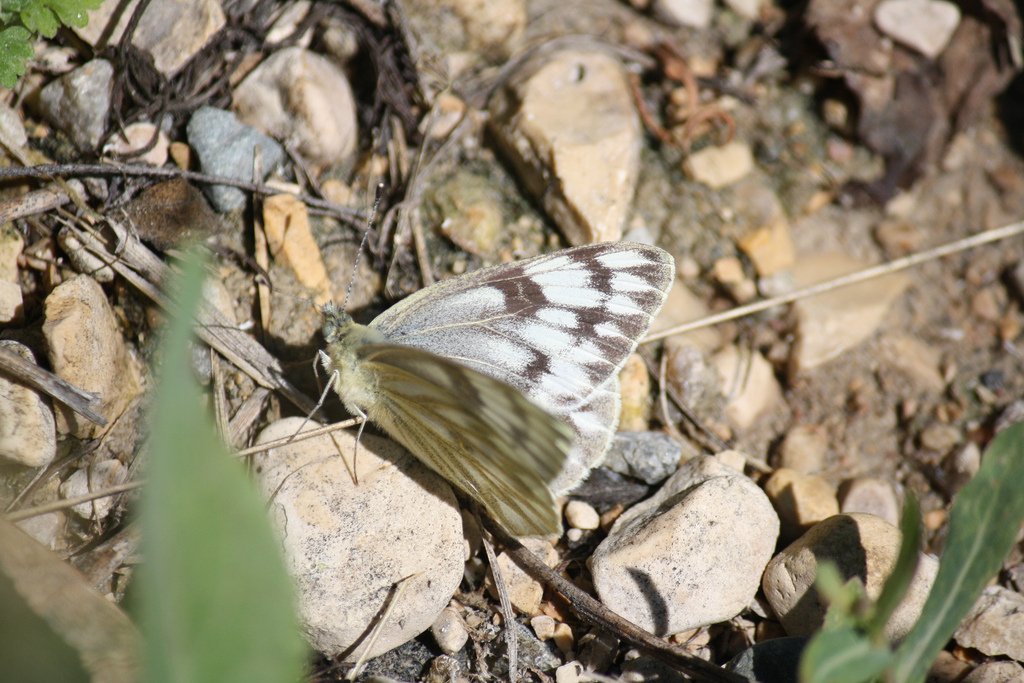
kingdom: Animalia
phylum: Arthropoda
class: Insecta
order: Lepidoptera
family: Pieridae
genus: Pontia
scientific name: Pontia occidentalis
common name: Western White
